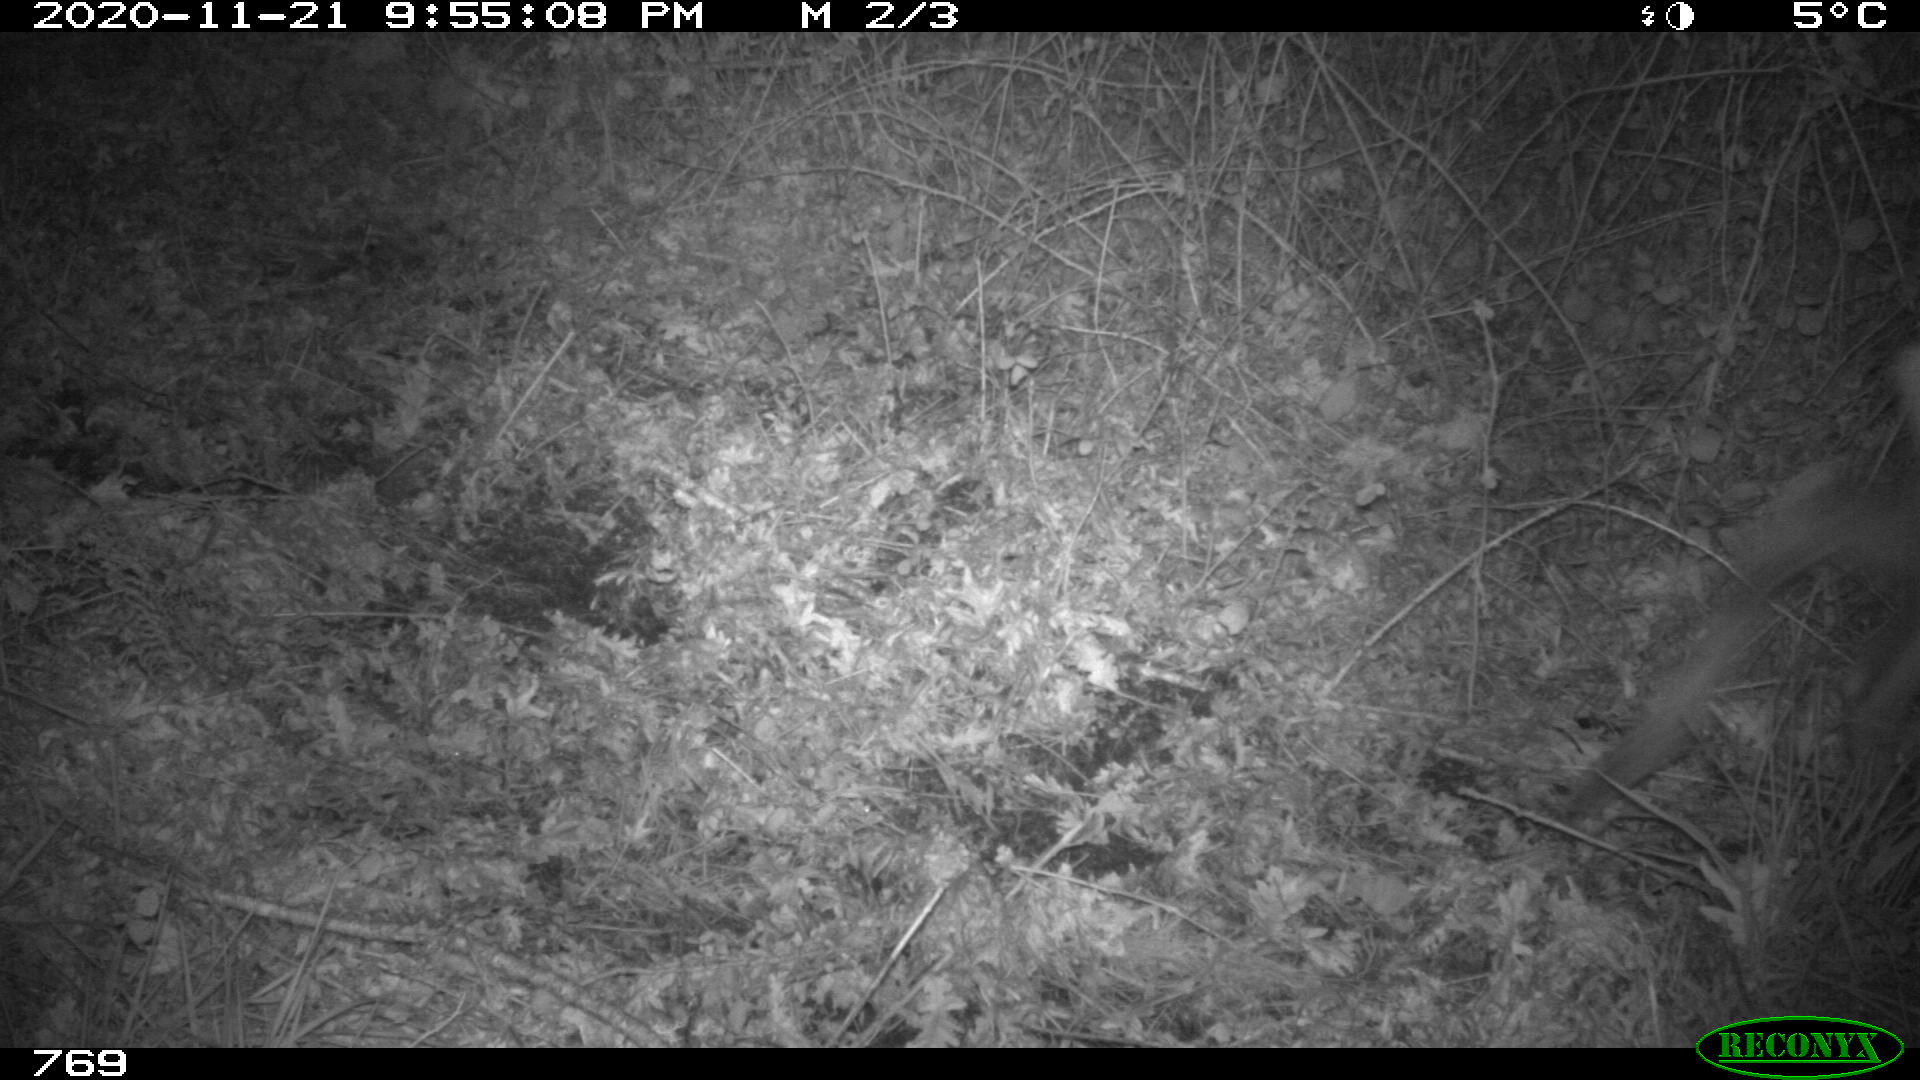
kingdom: Animalia
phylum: Chordata
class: Mammalia
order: Artiodactyla
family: Cervidae
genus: Capreolus
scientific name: Capreolus capreolus
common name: Western roe deer
